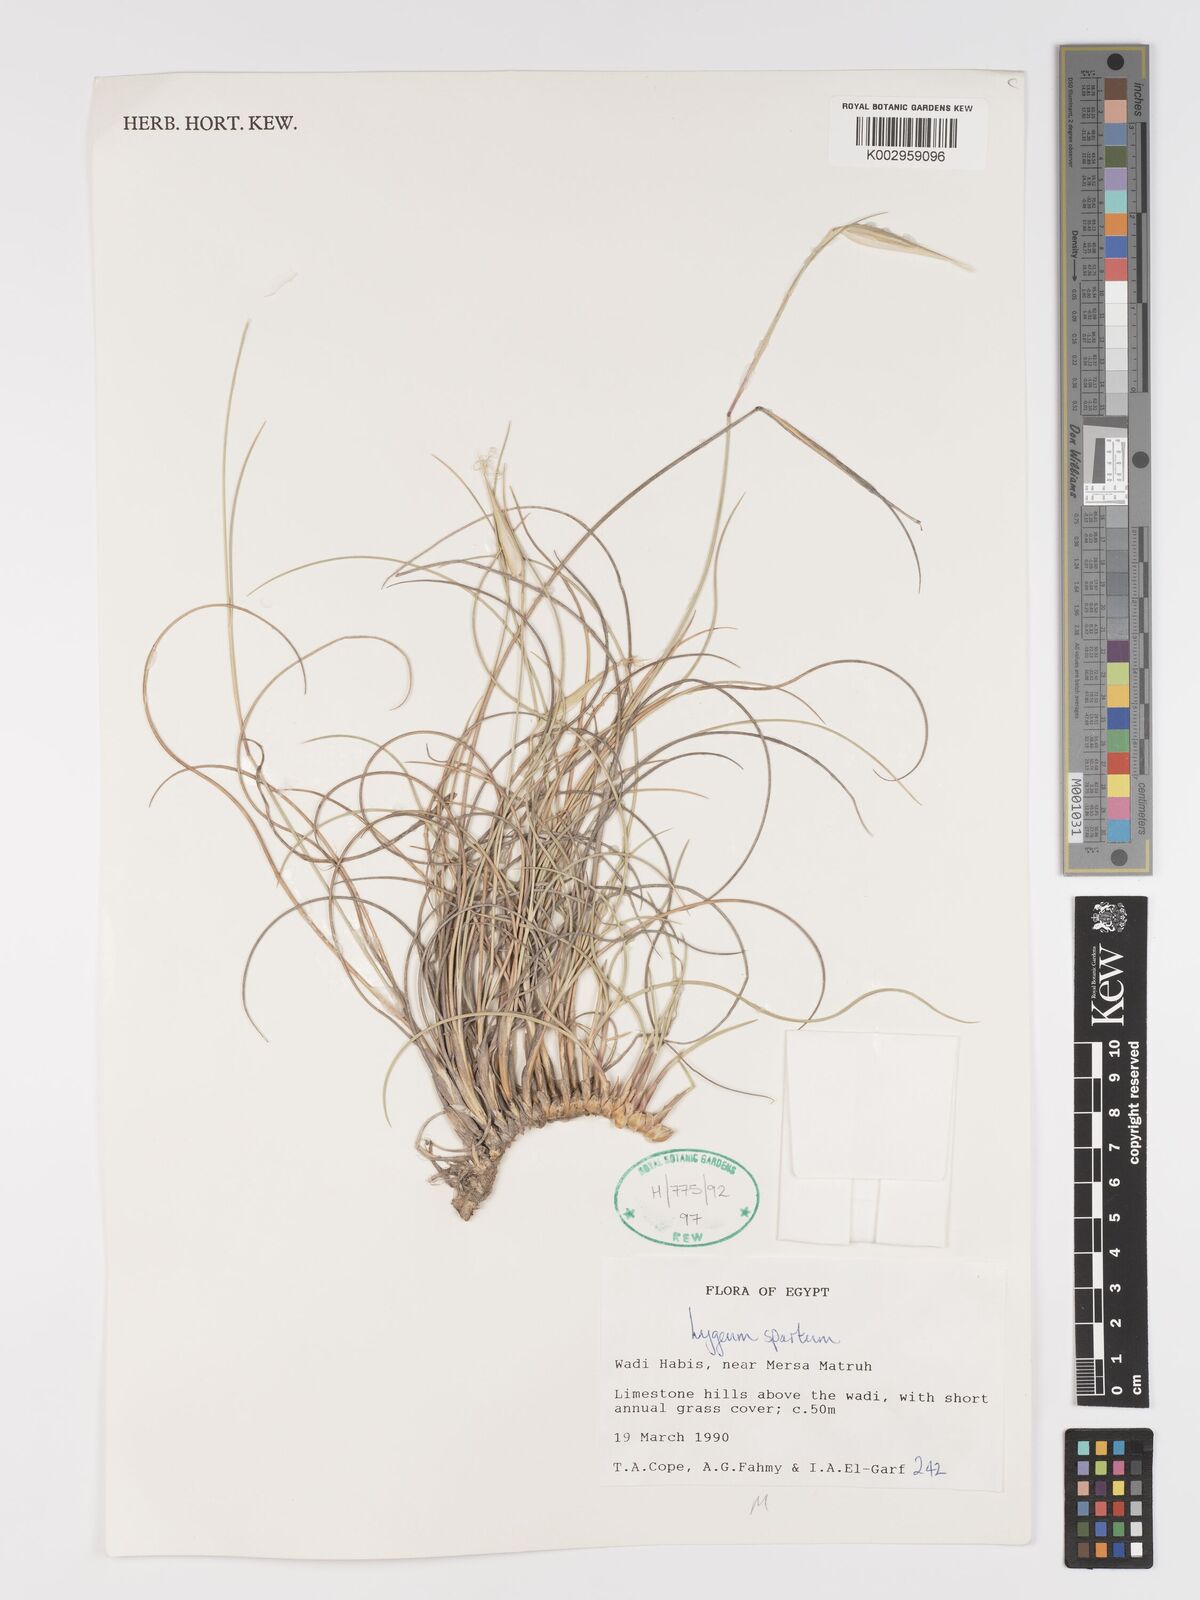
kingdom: Plantae
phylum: Tracheophyta
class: Liliopsida
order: Poales
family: Poaceae
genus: Lygeum
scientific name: Lygeum spartum
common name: Albardine
